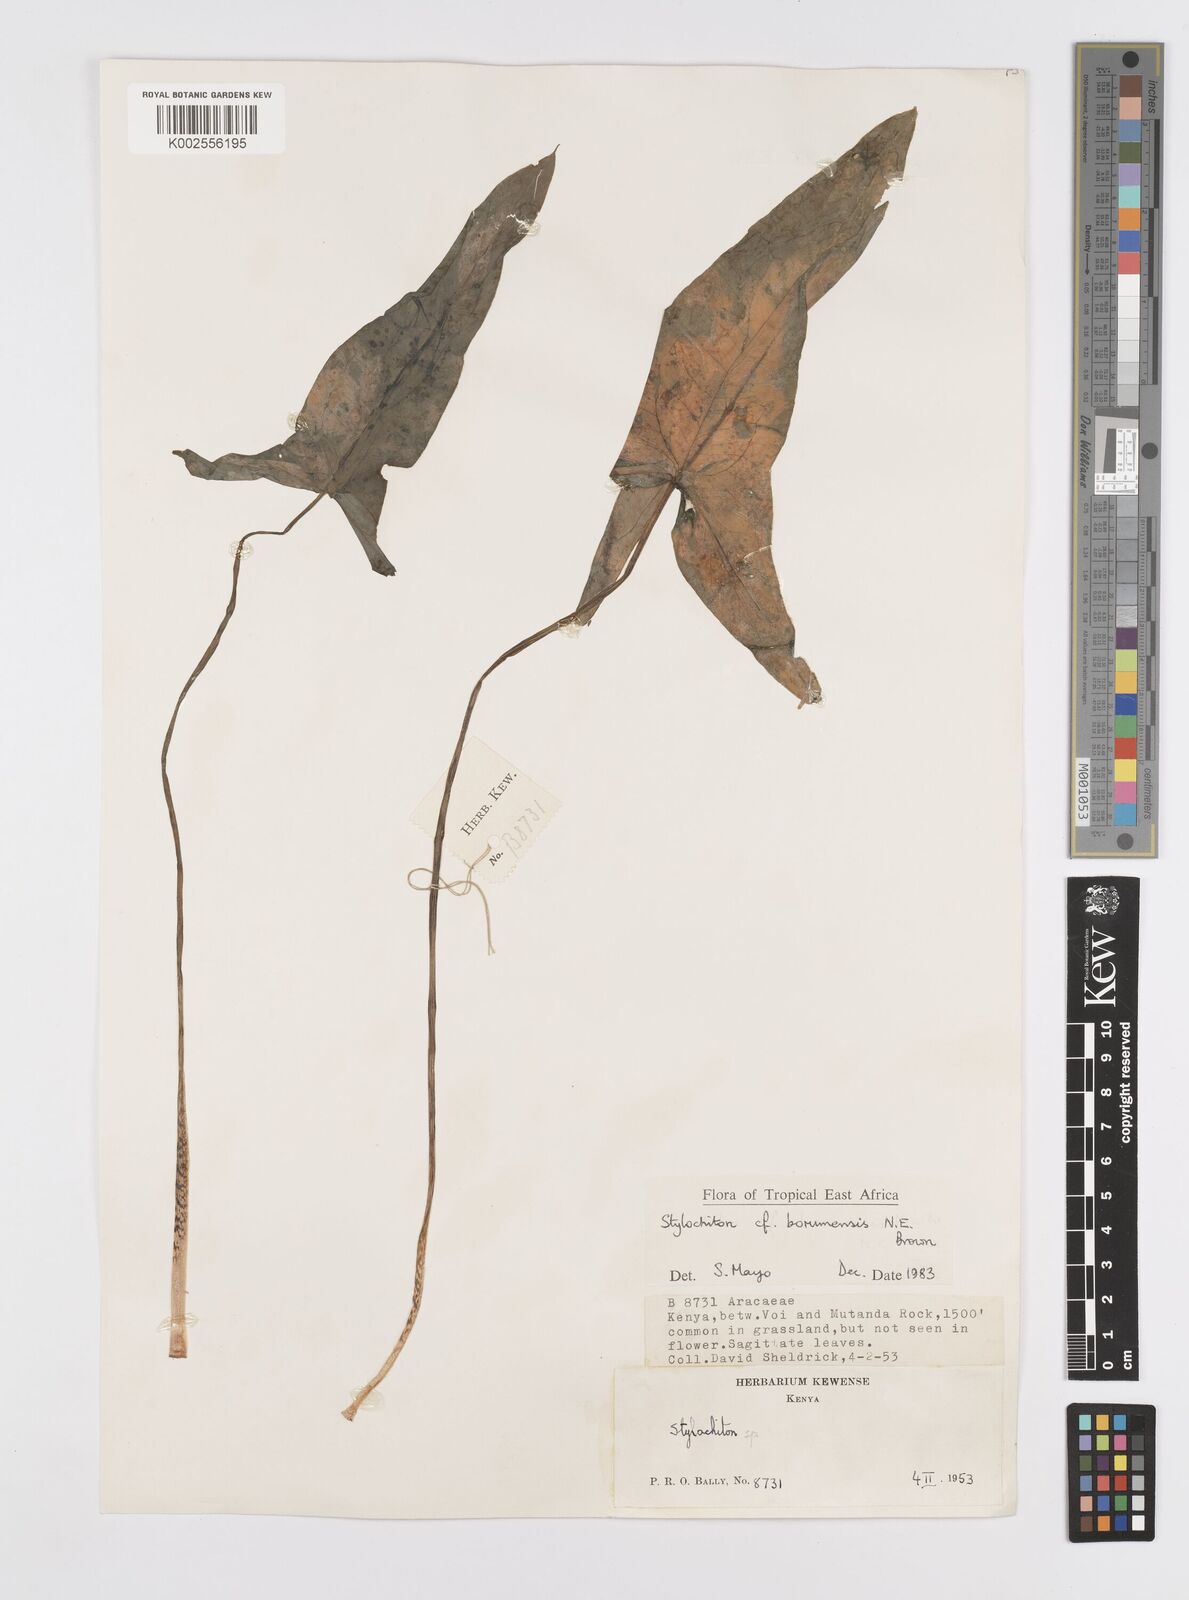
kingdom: Plantae
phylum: Tracheophyta
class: Liliopsida
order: Alismatales
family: Araceae
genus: Stylochaeton
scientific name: Stylochaeton borumense
